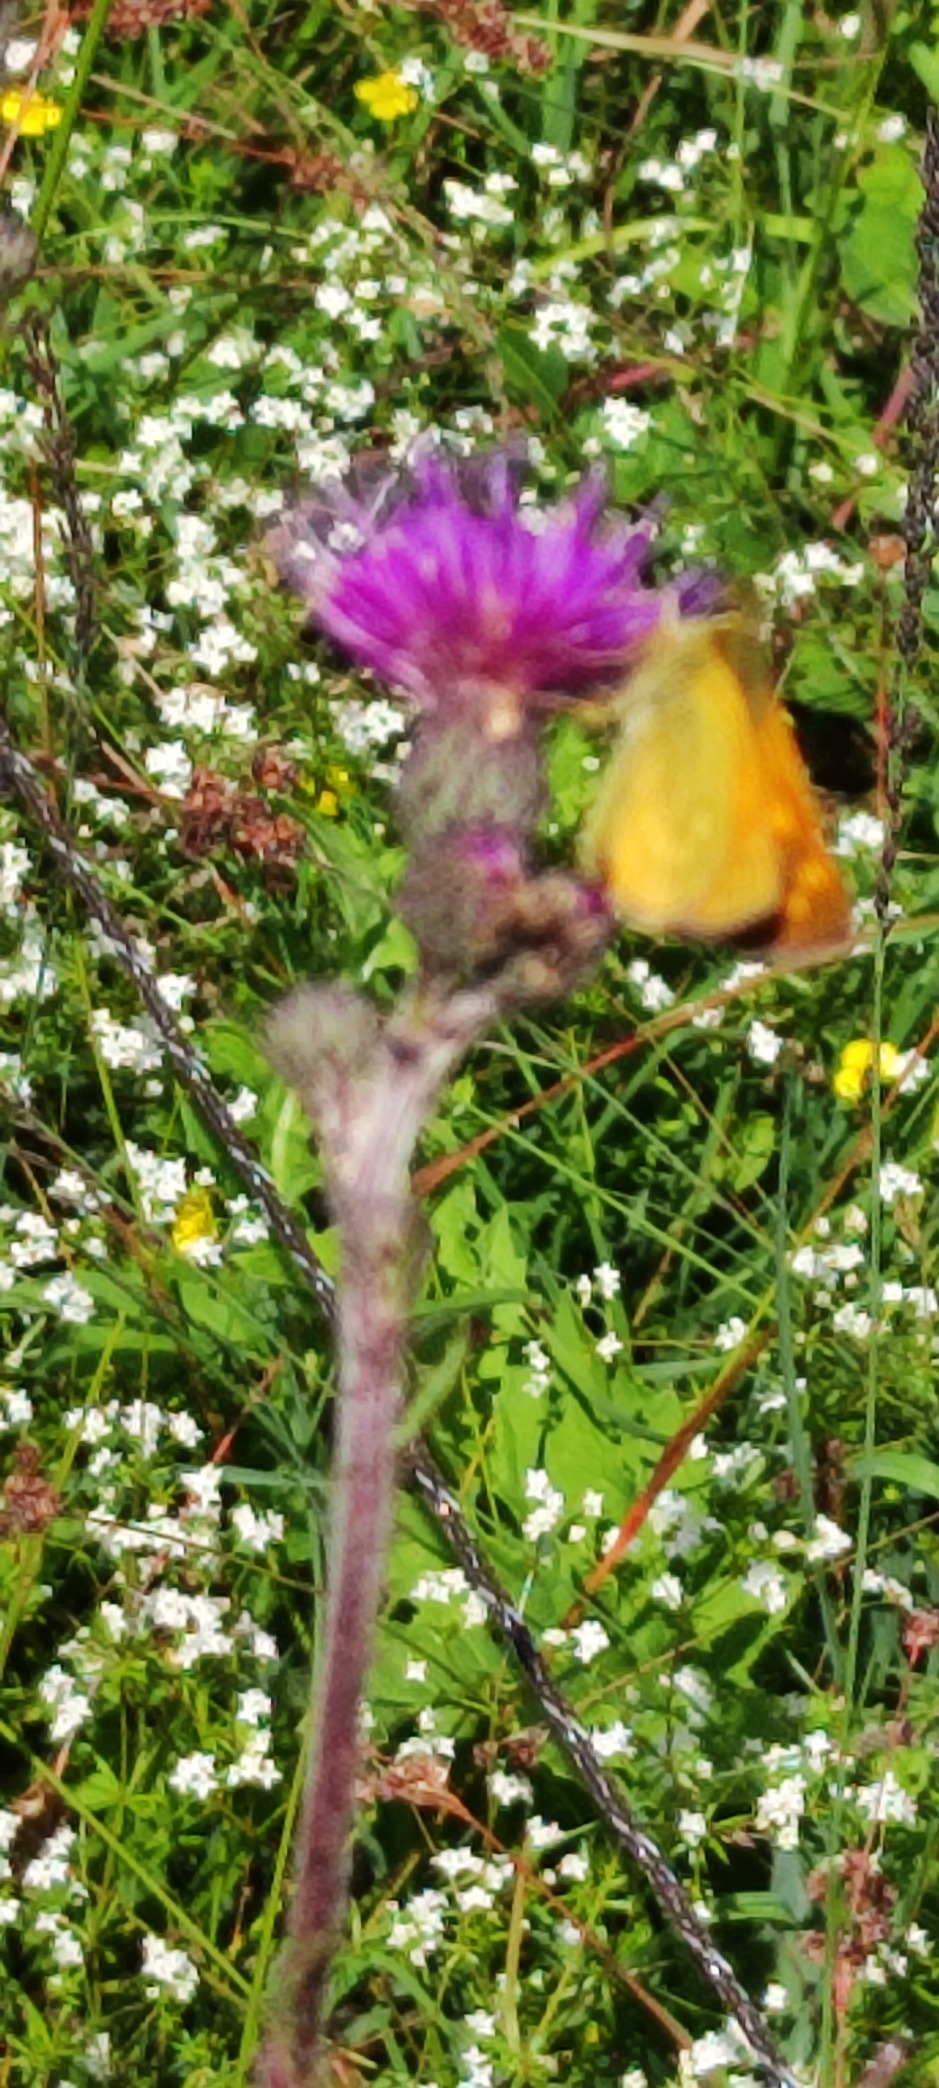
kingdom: Animalia
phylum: Arthropoda
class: Insecta
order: Lepidoptera
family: Hesperiidae
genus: Ochlodes
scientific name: Ochlodes venata
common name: Stor bredpande
